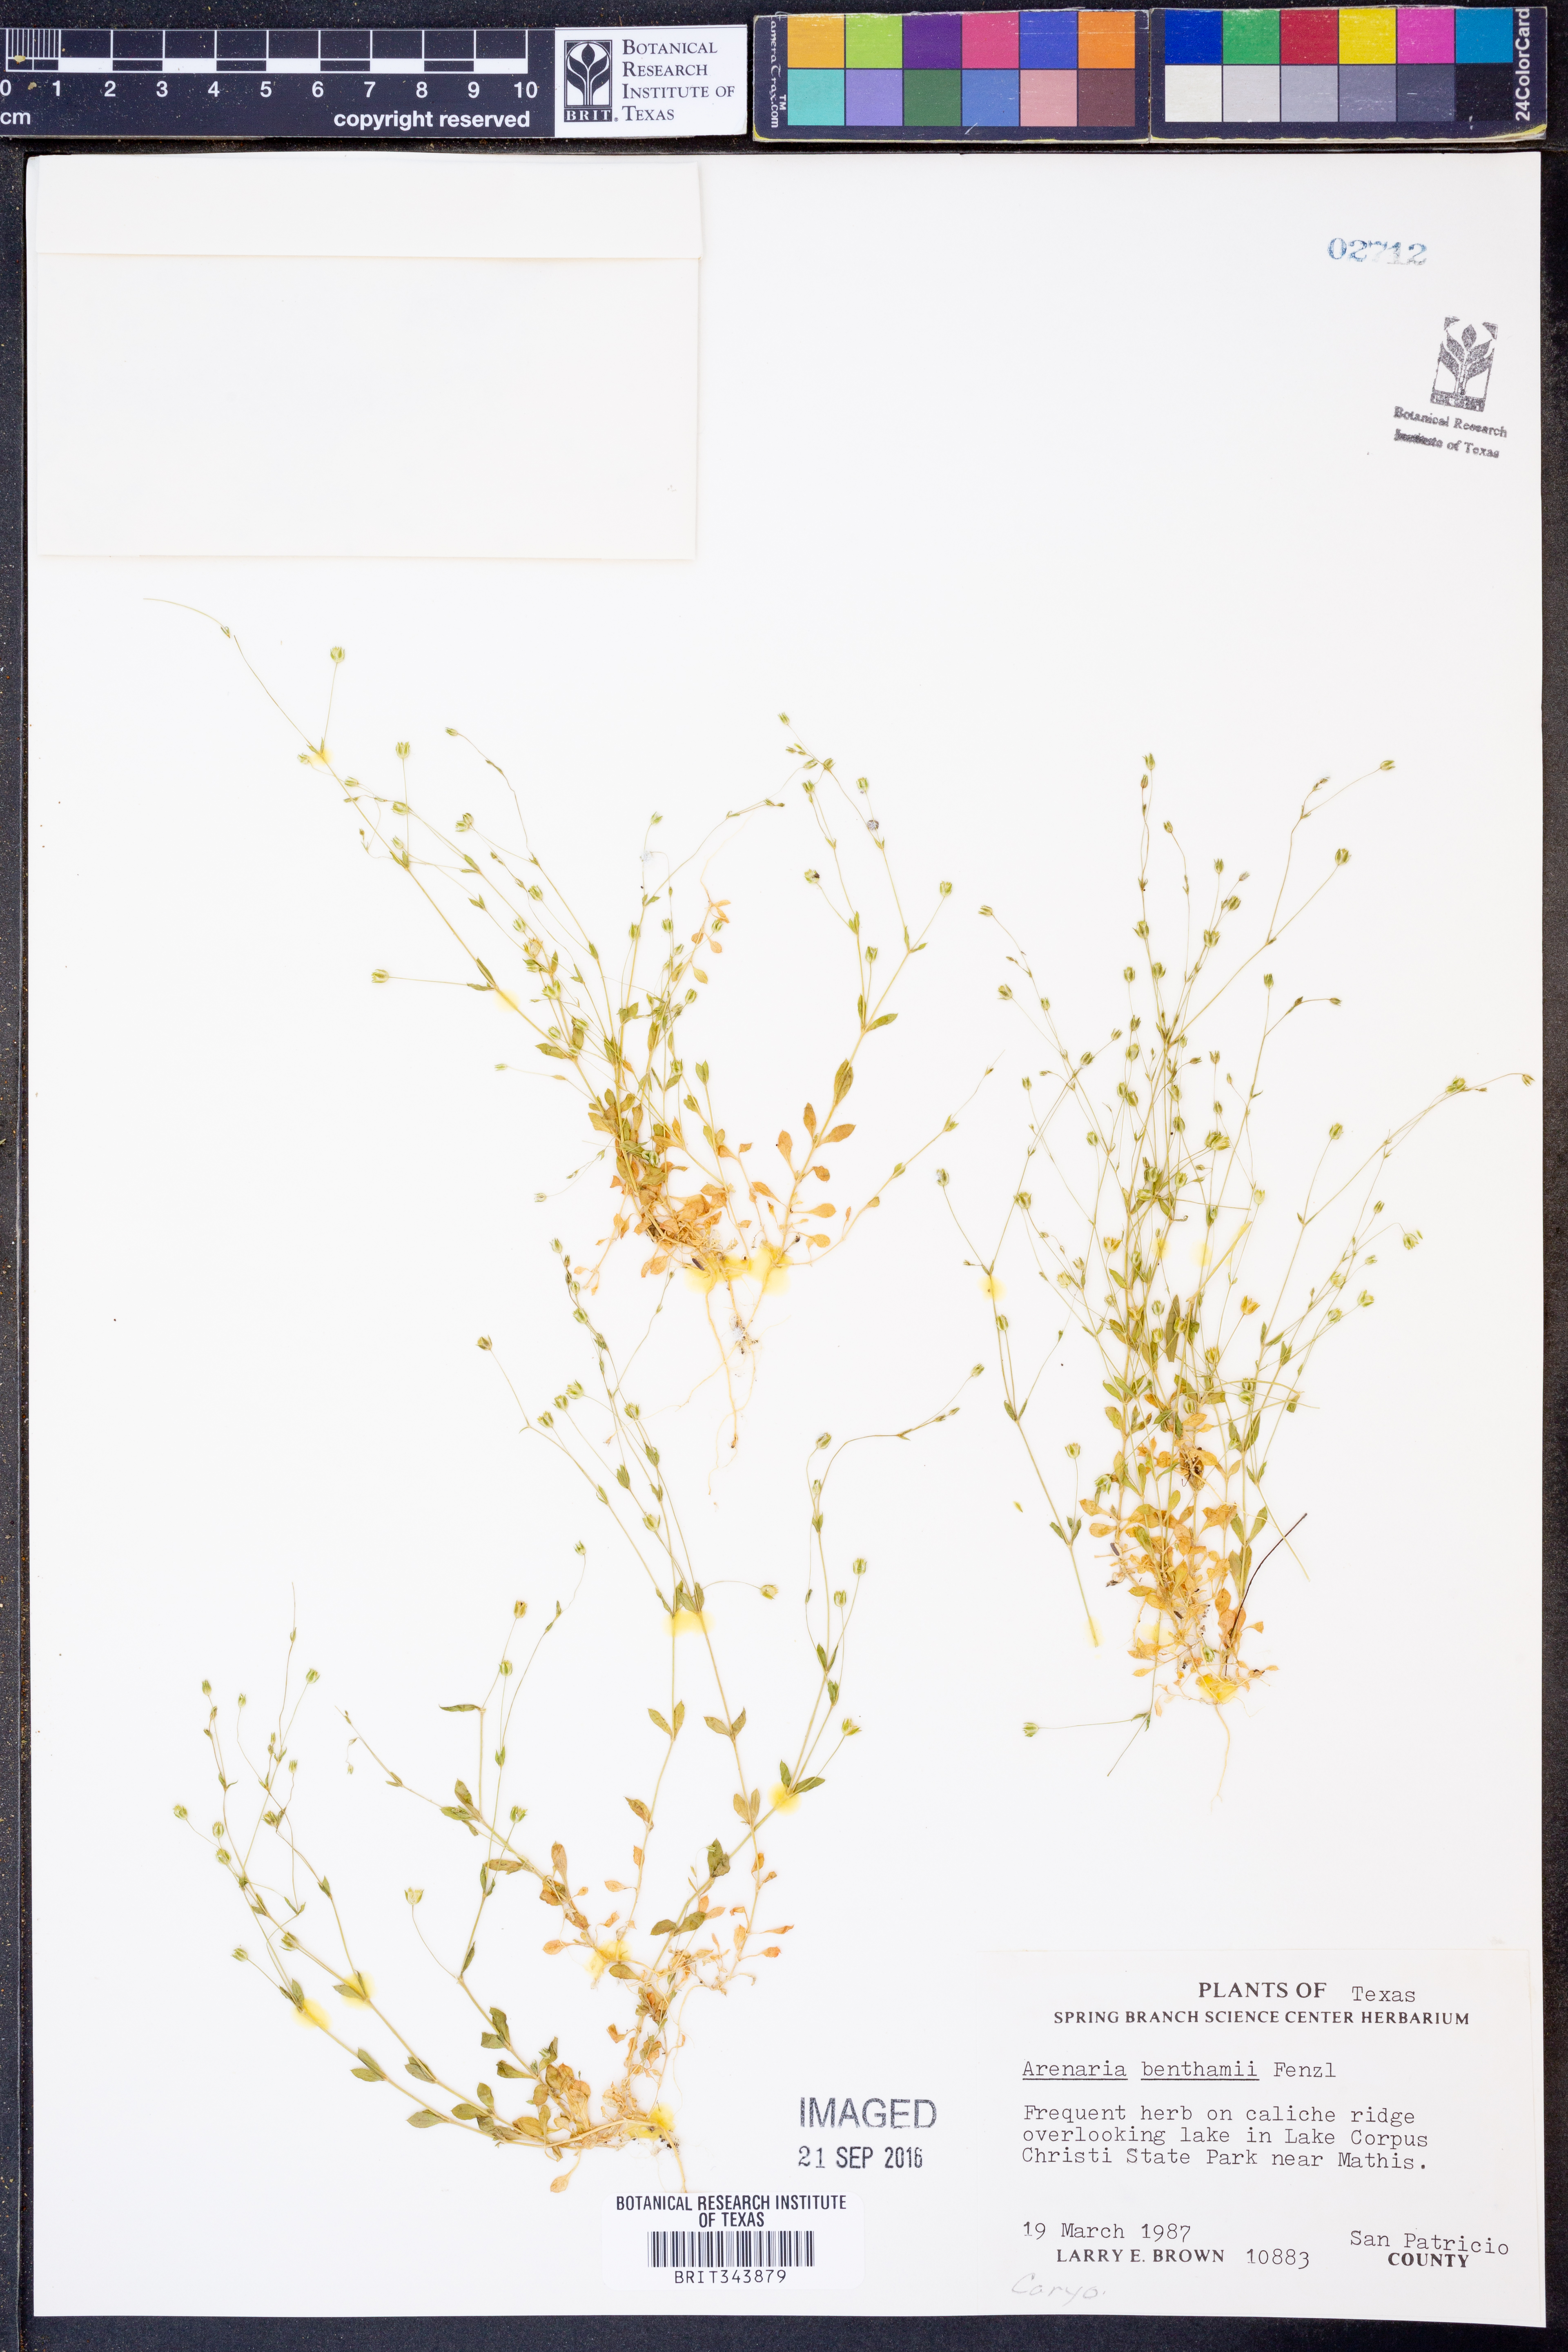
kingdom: Plantae
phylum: Tracheophyta
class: Magnoliopsida
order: Caryophyllales
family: Caryophyllaceae
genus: Arenaria
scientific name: Arenaria benthamii
